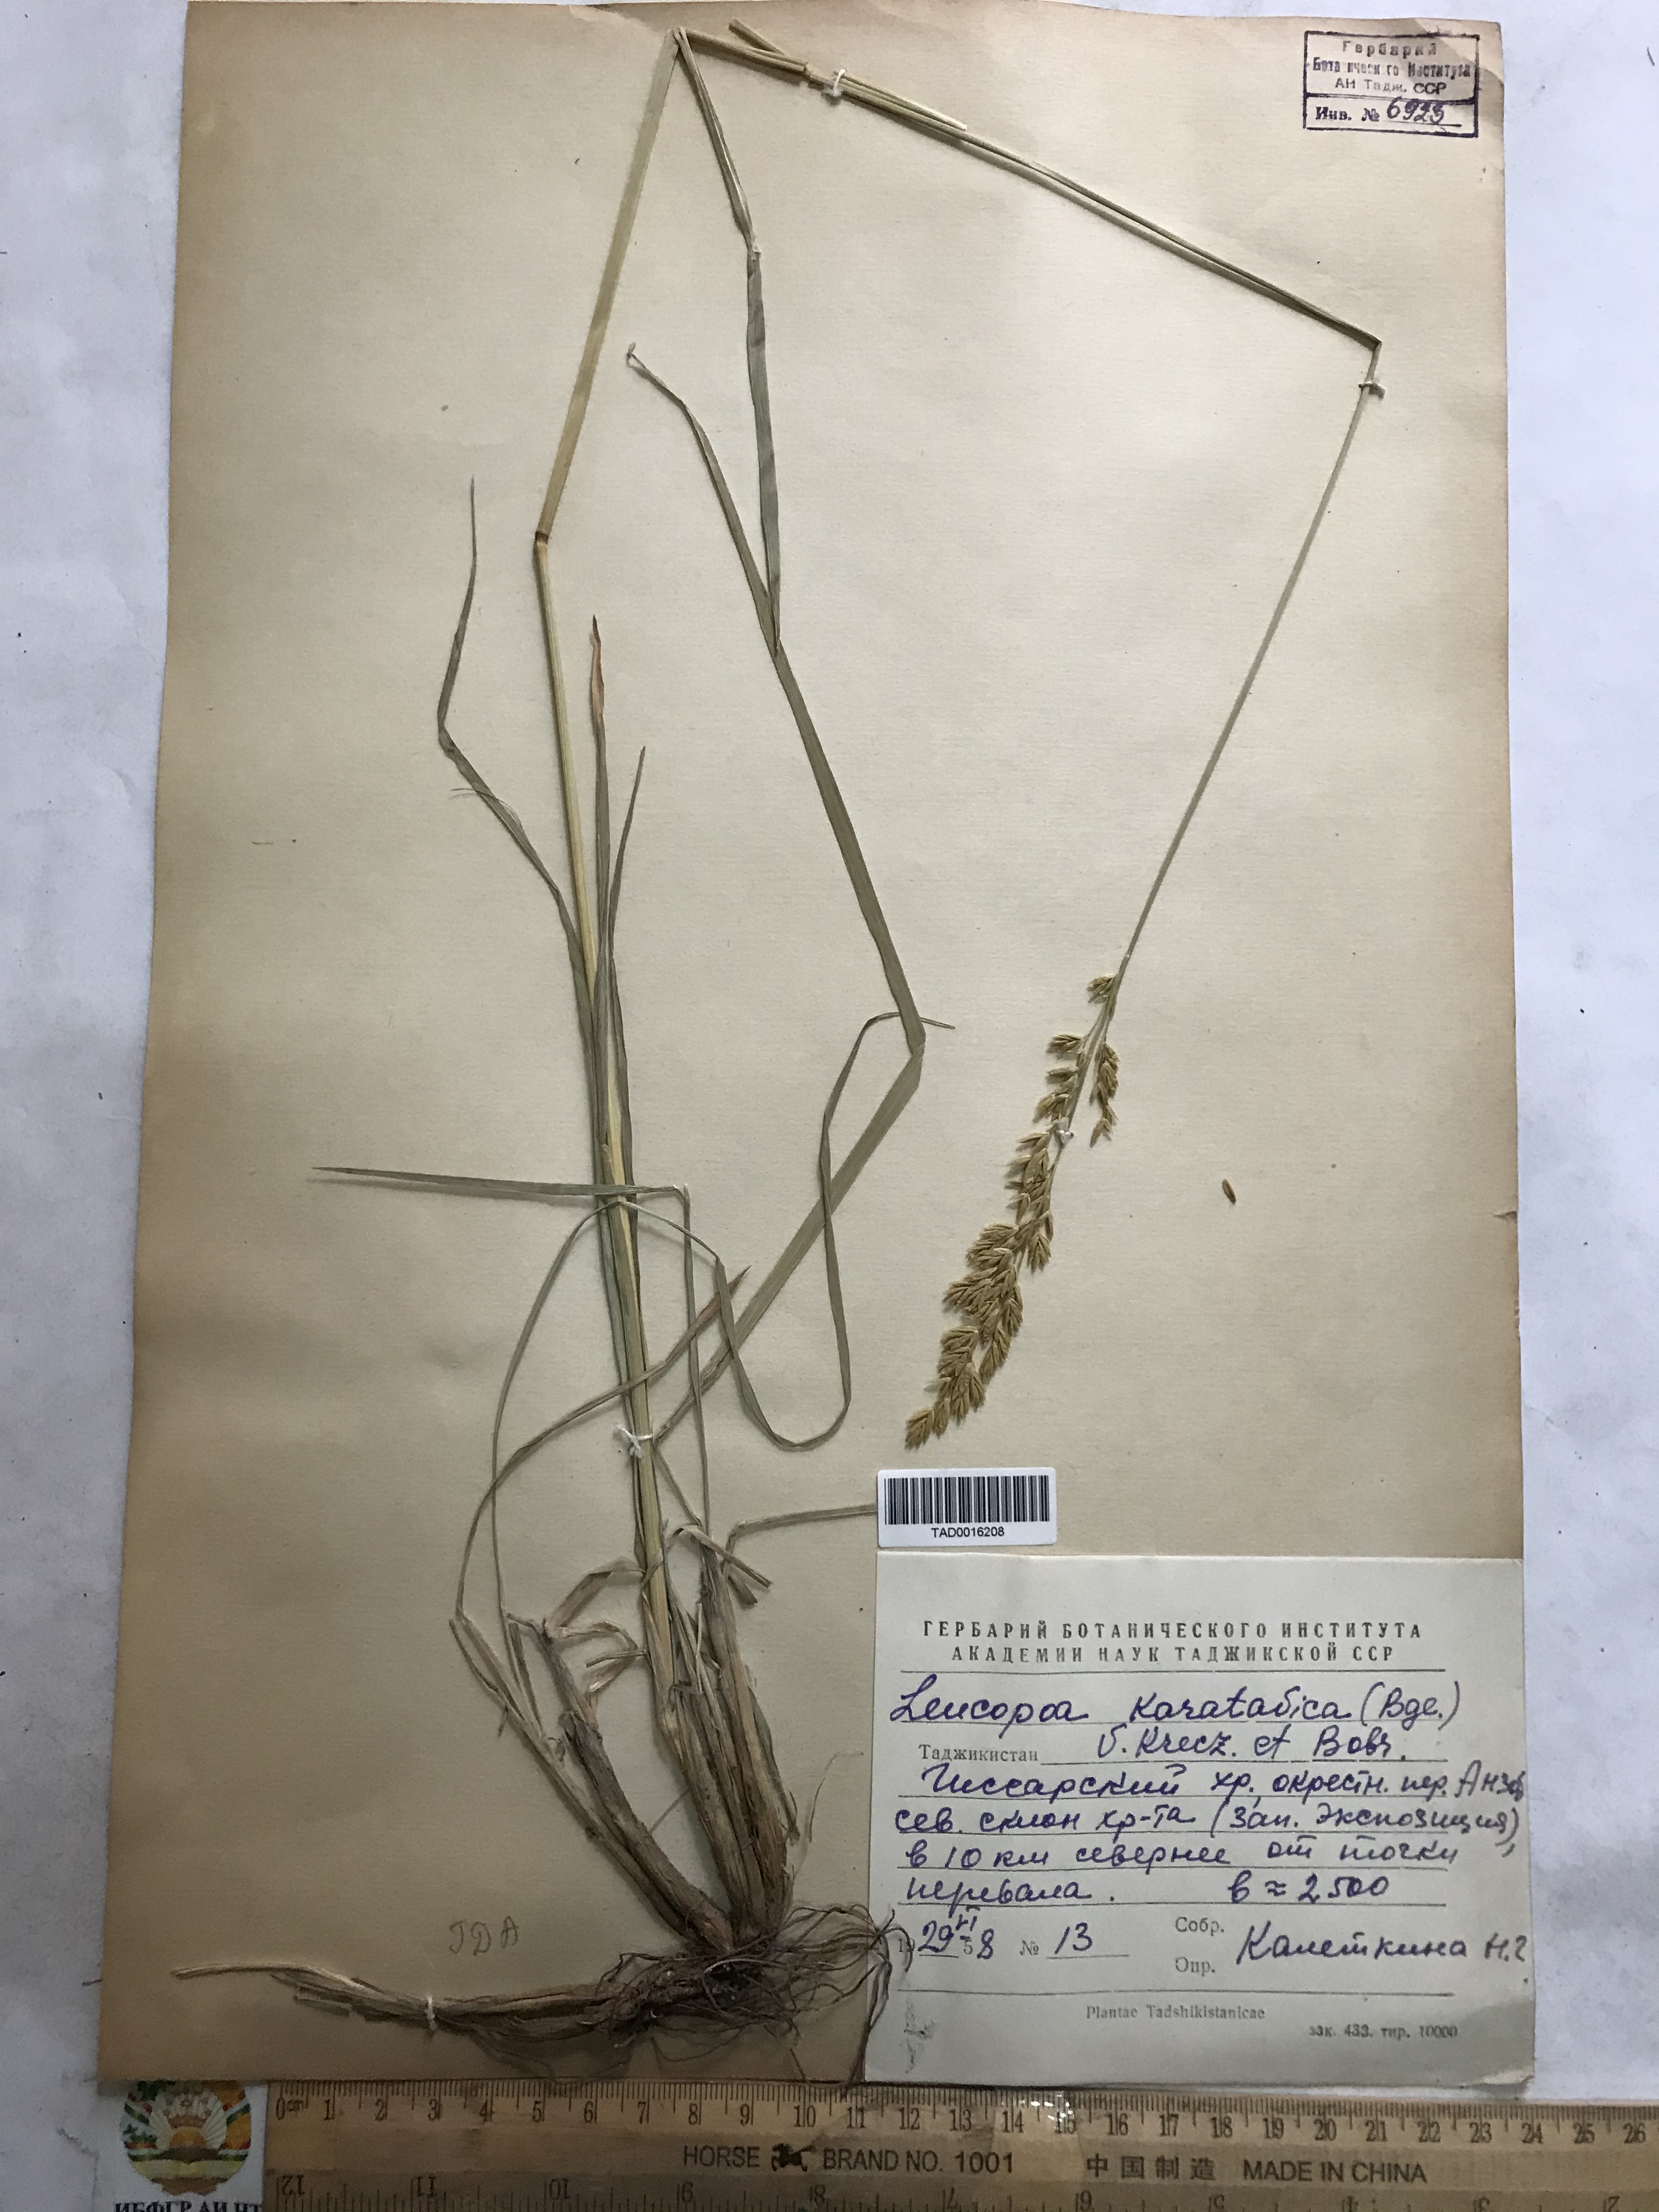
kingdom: Plantae
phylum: Tracheophyta
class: Liliopsida
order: Poales
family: Poaceae
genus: Festuca
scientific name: Festuca karatavica
